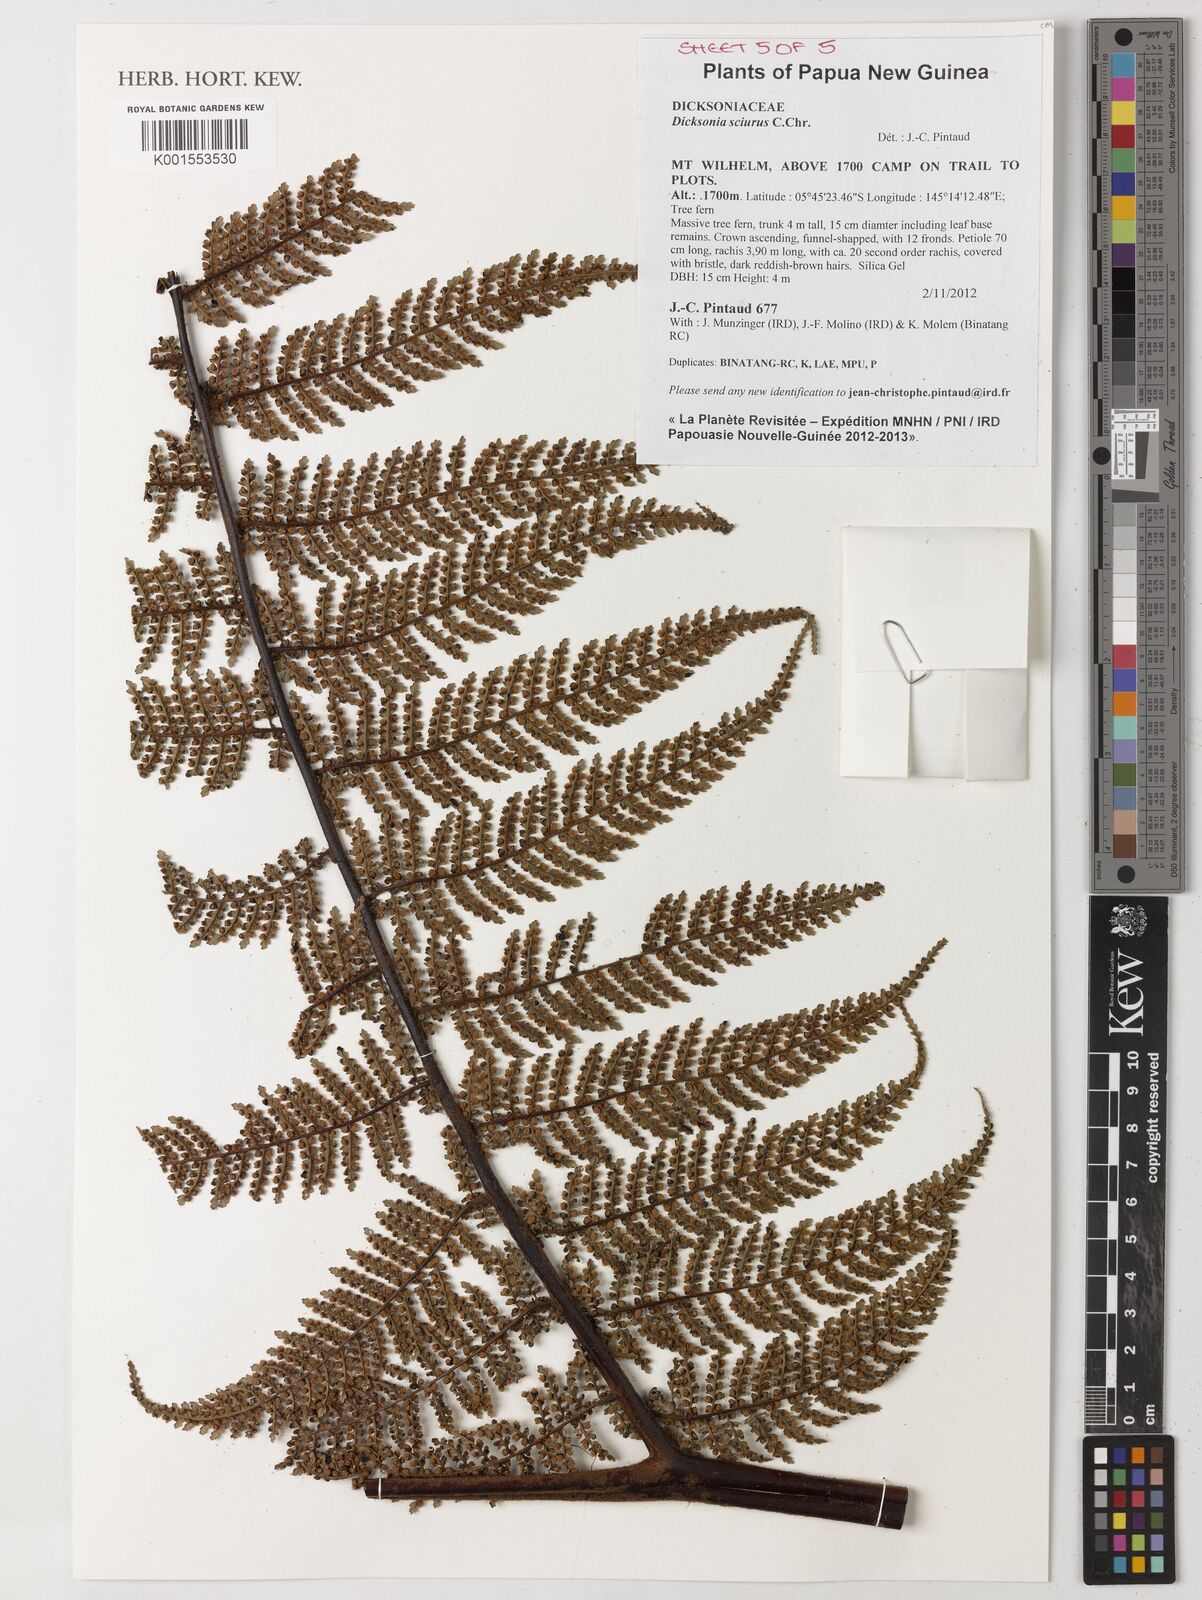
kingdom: Plantae
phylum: Tracheophyta
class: Polypodiopsida
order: Cyatheales
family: Dicksoniaceae
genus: Dicksonia
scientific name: Dicksonia sciurus
